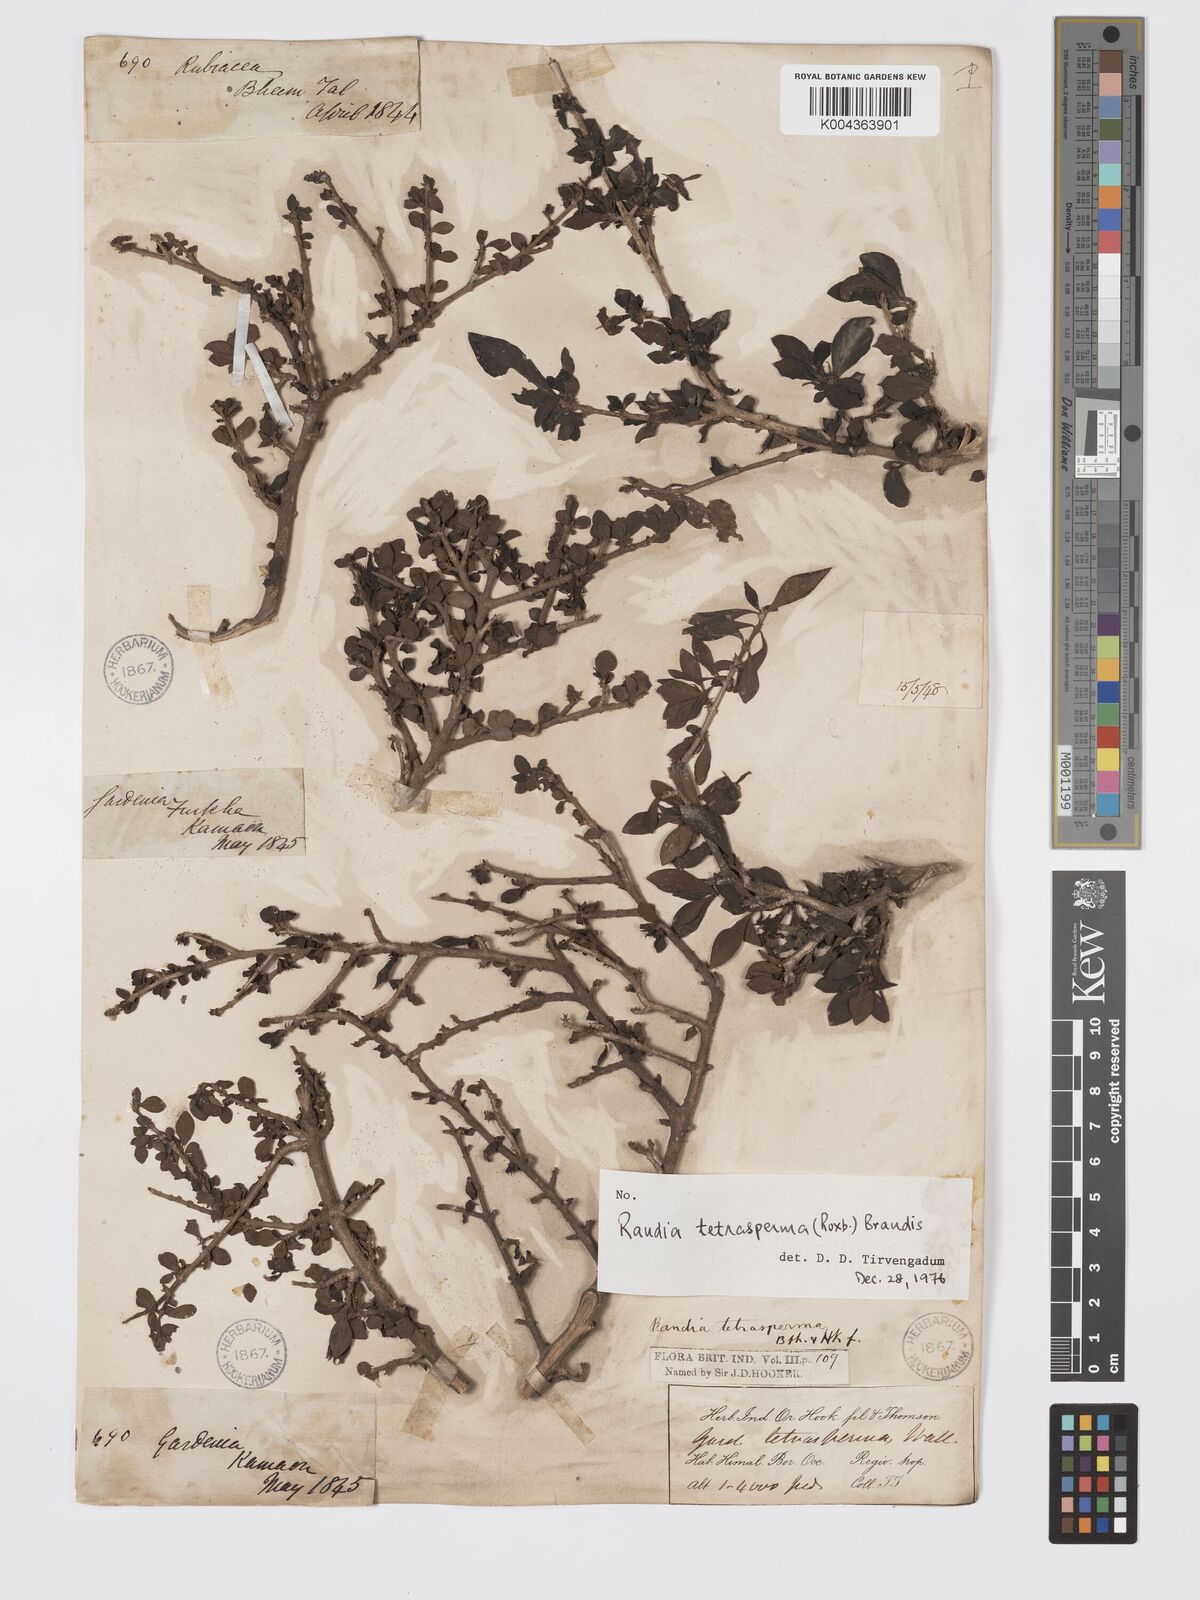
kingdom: Plantae
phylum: Tracheophyta
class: Magnoliopsida
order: Gentianales
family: Rubiaceae
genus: Himalrandia
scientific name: Himalrandia tetrasperma
